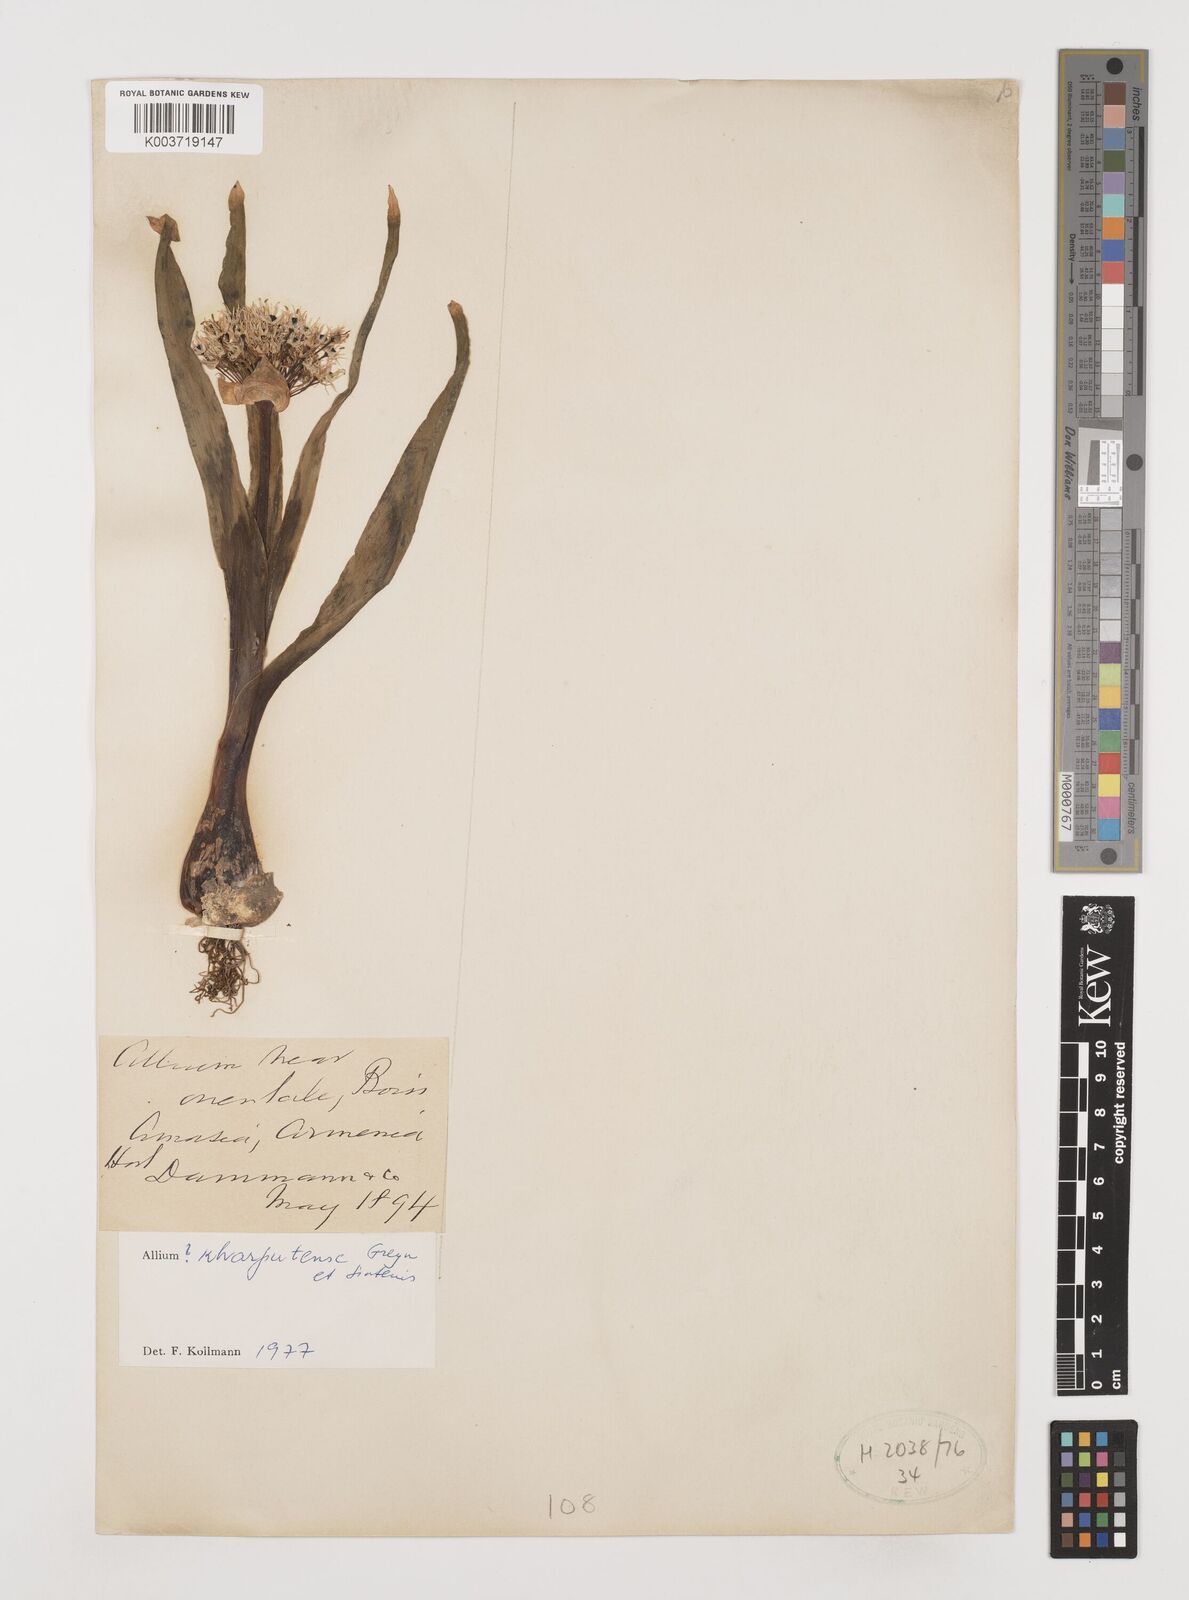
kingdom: Plantae
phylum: Tracheophyta
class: Liliopsida
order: Asparagales
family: Amaryllidaceae
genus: Allium
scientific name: Allium kharputense
